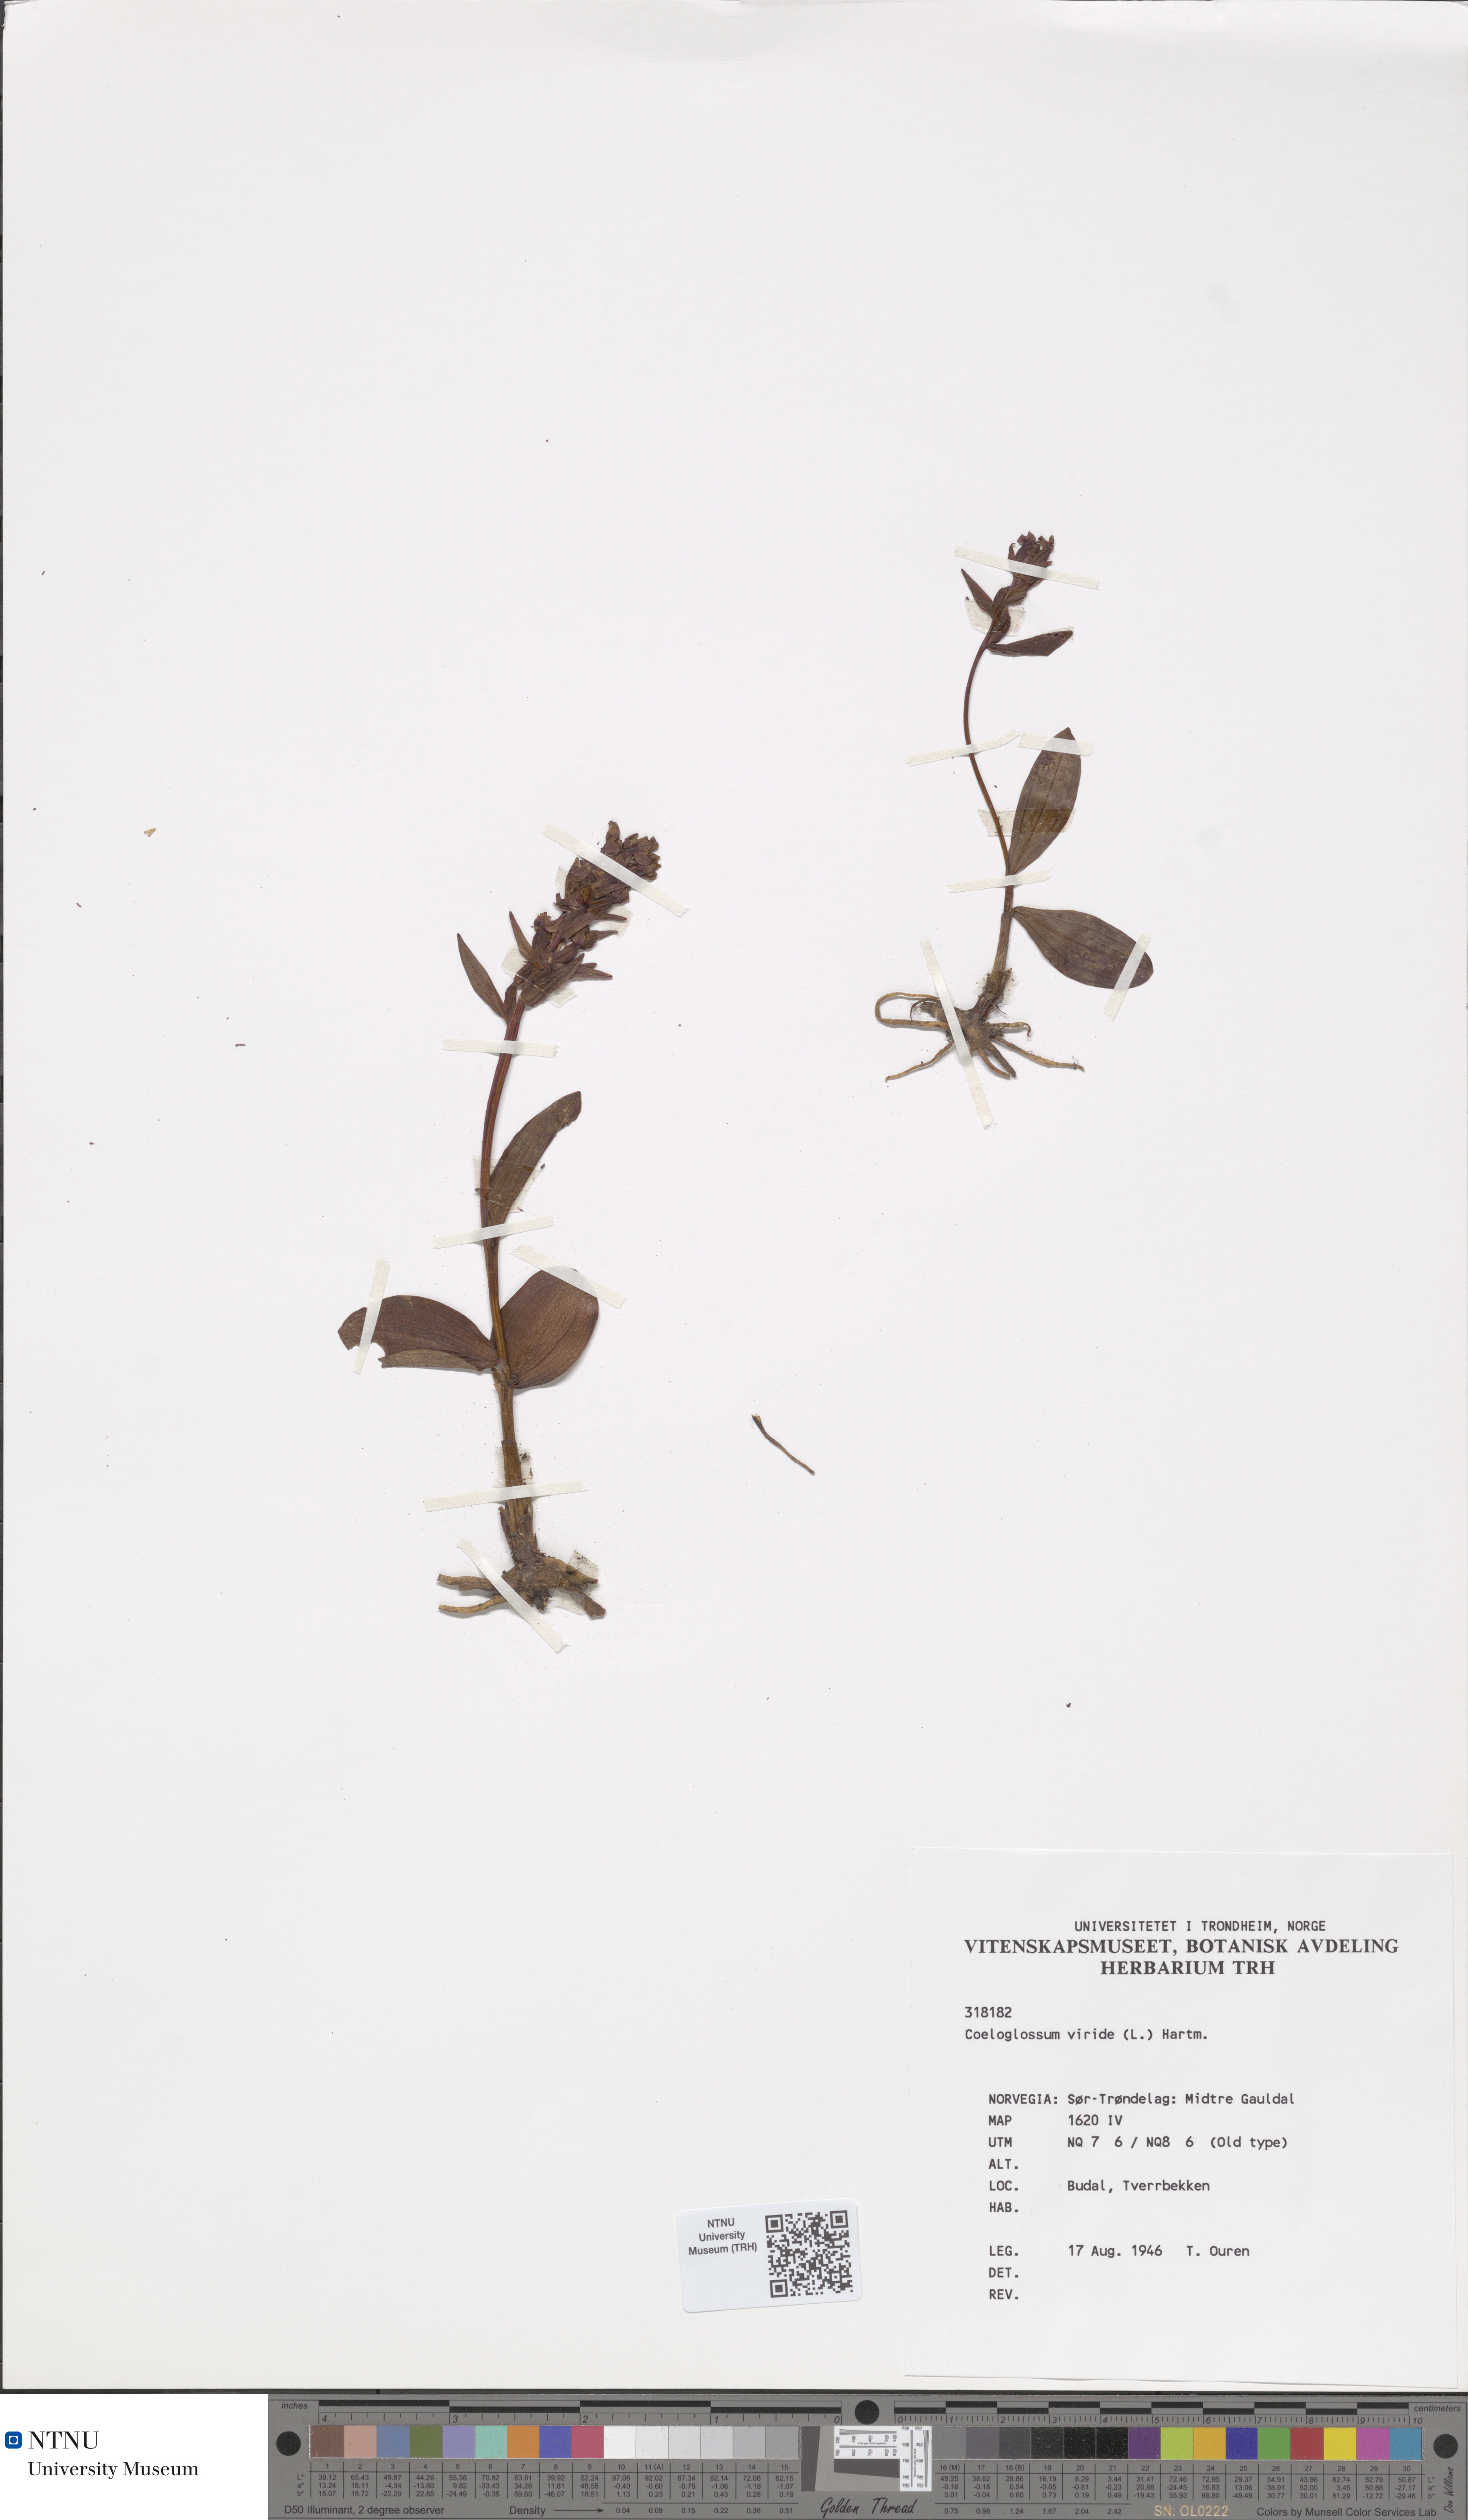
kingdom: Plantae
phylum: Tracheophyta
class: Liliopsida
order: Asparagales
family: Orchidaceae
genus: Dactylorhiza
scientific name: Dactylorhiza viridis
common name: Longbract frog orchid
